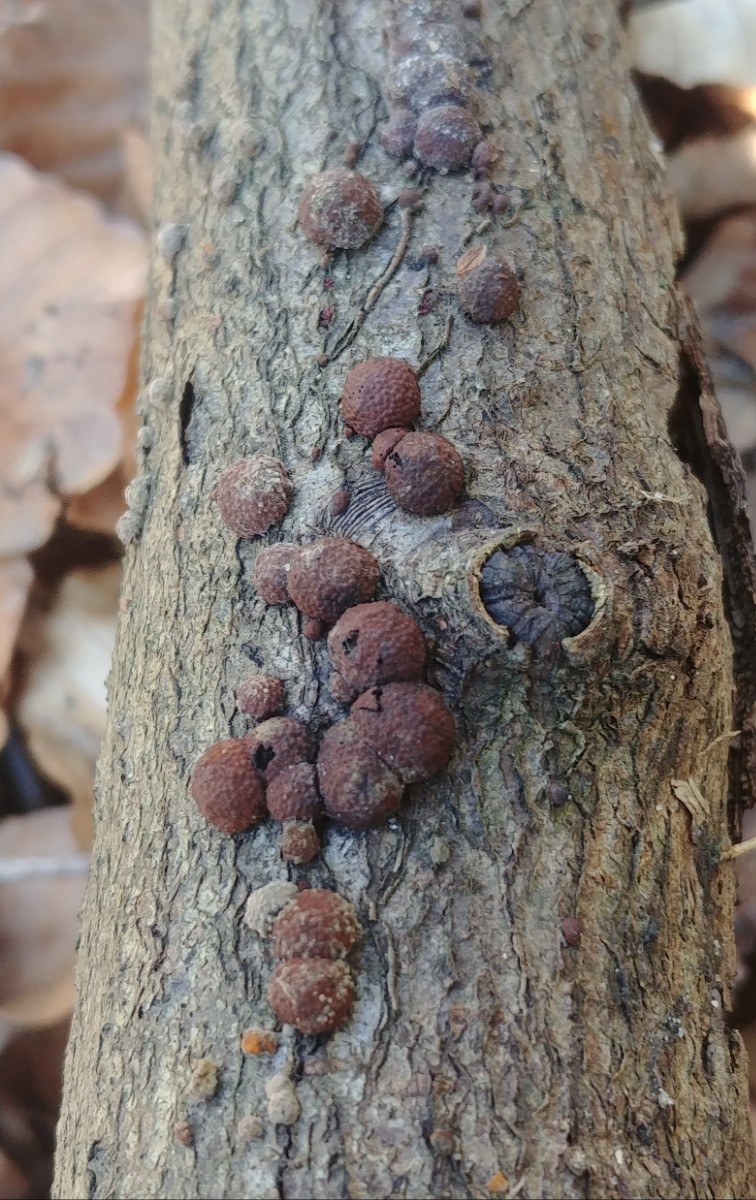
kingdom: Fungi
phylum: Ascomycota
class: Sordariomycetes
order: Xylariales
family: Hypoxylaceae
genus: Hypoxylon
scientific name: Hypoxylon fragiforme
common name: kuljordbær
